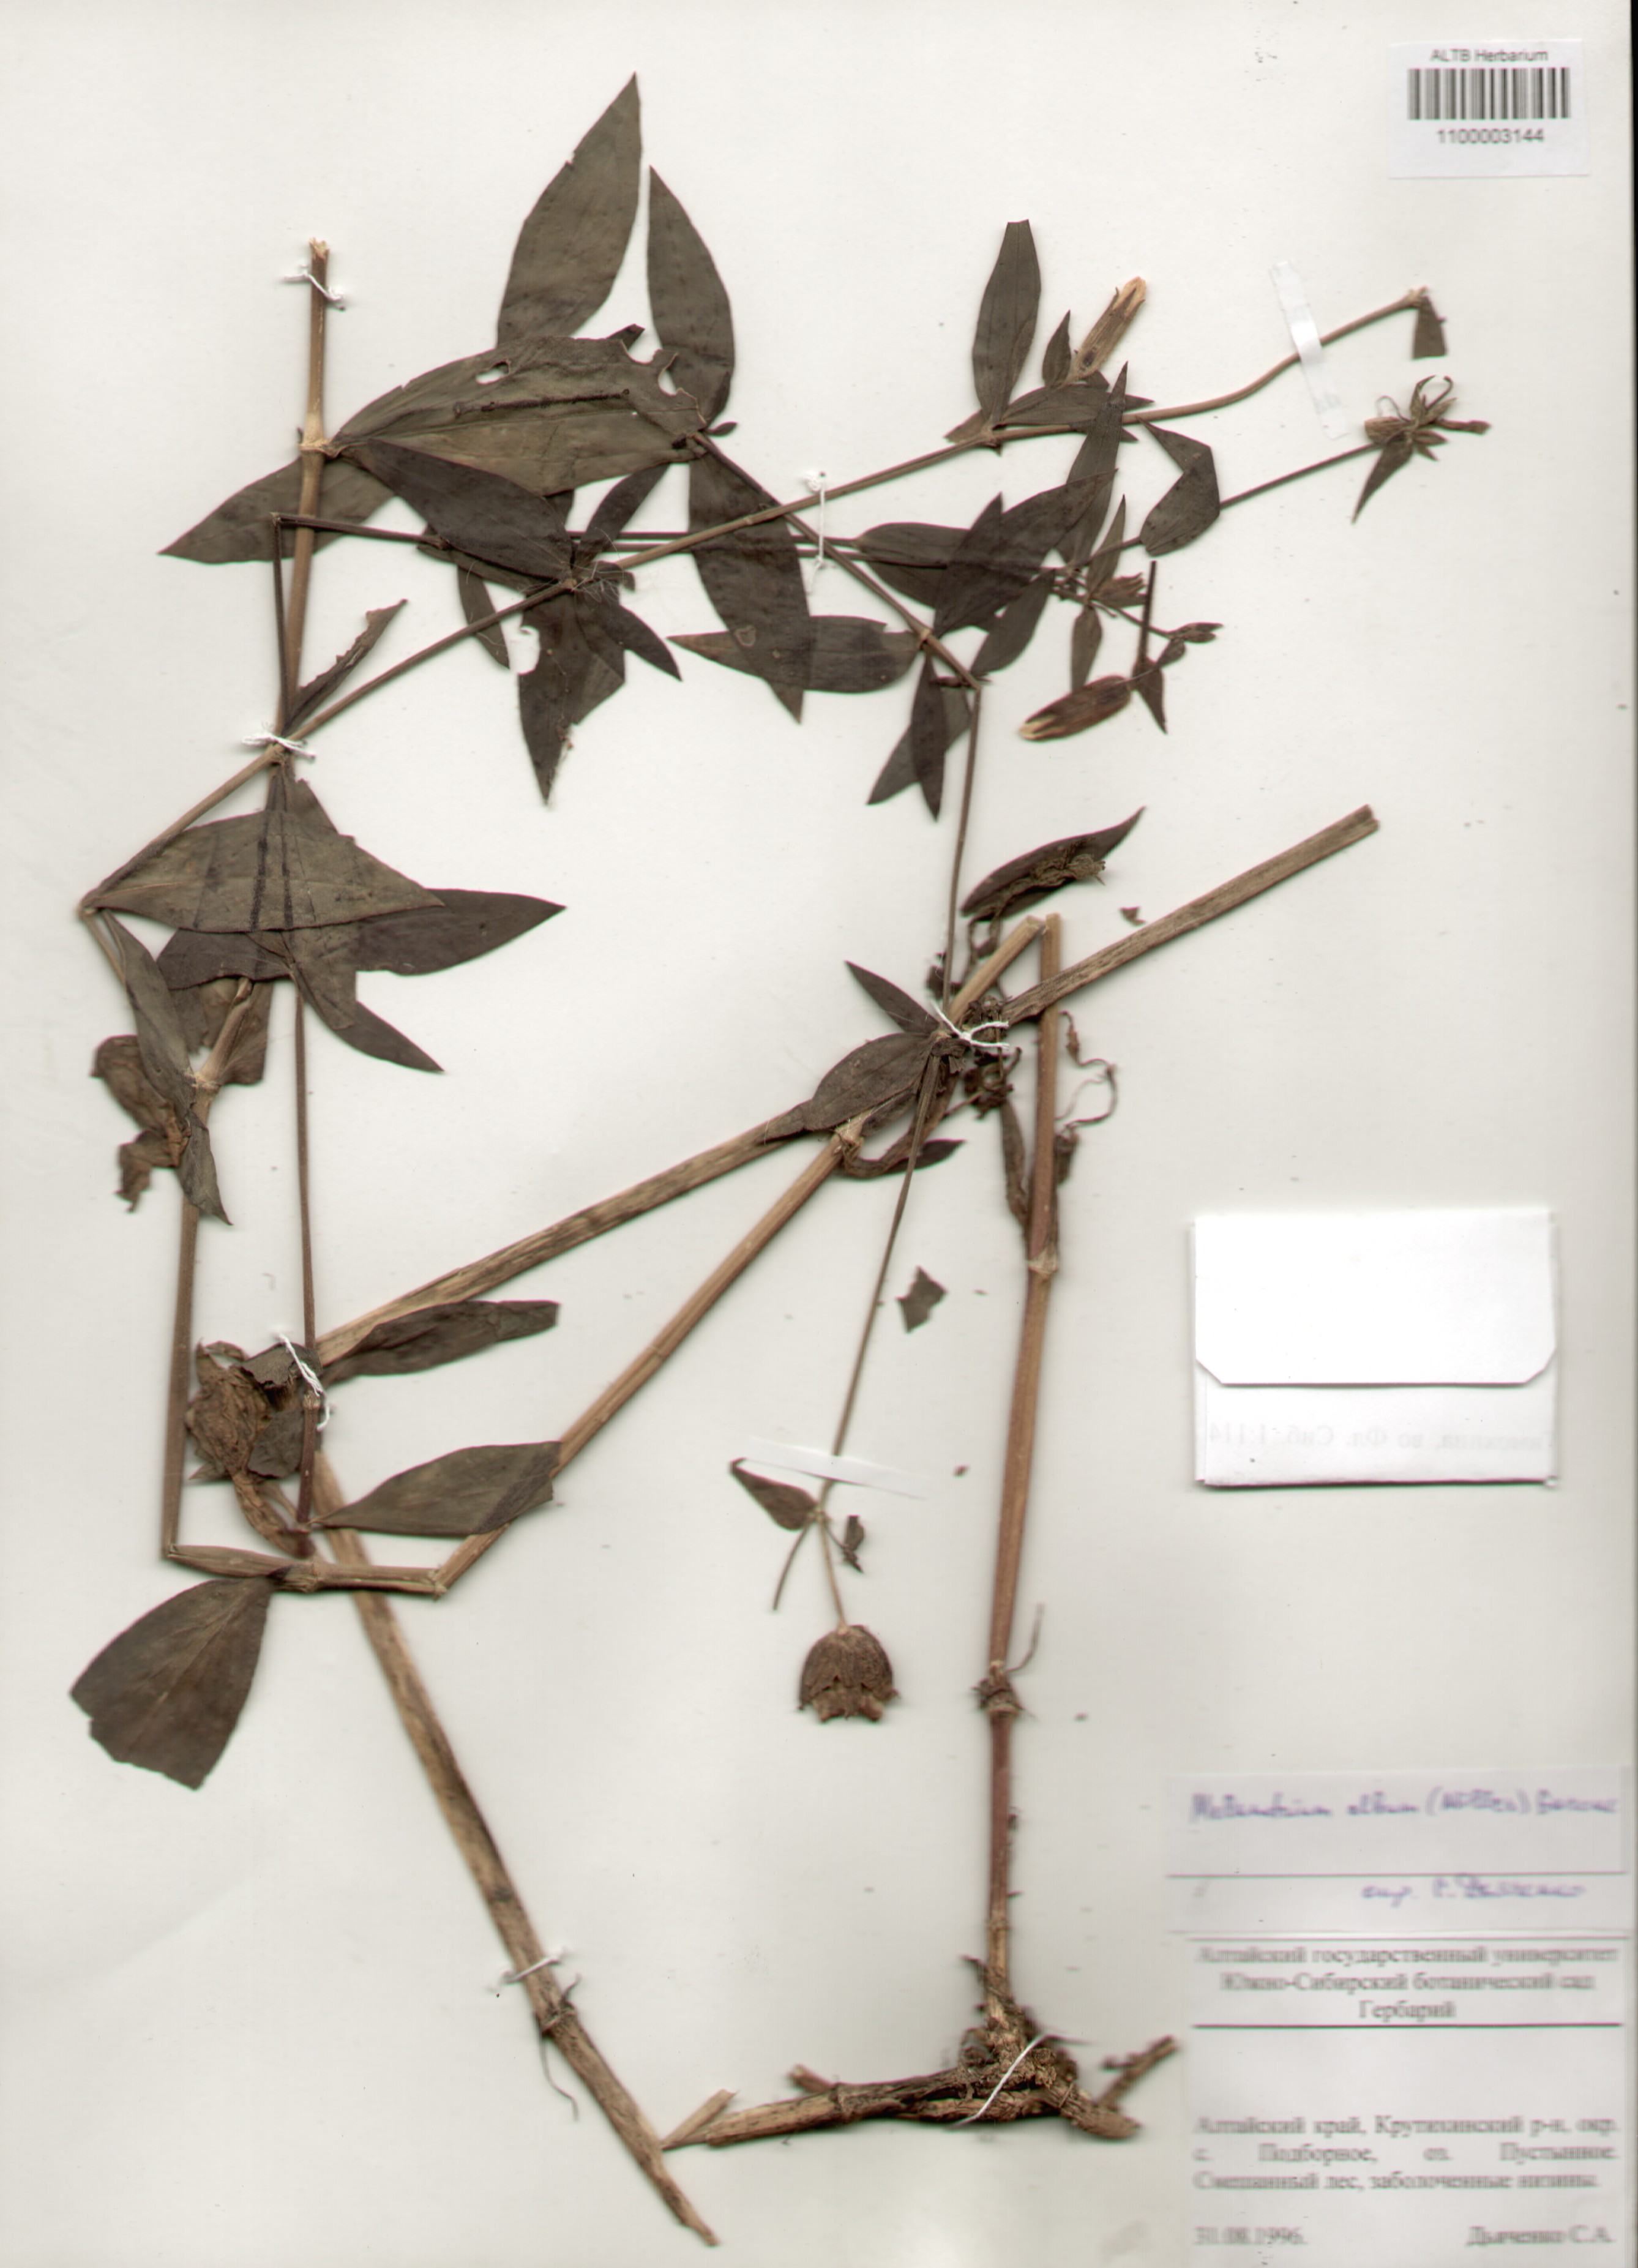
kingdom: Plantae
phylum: Tracheophyta
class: Magnoliopsida
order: Caryophyllales
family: Caryophyllaceae
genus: Silene
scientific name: Silene latifolia
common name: White campion
